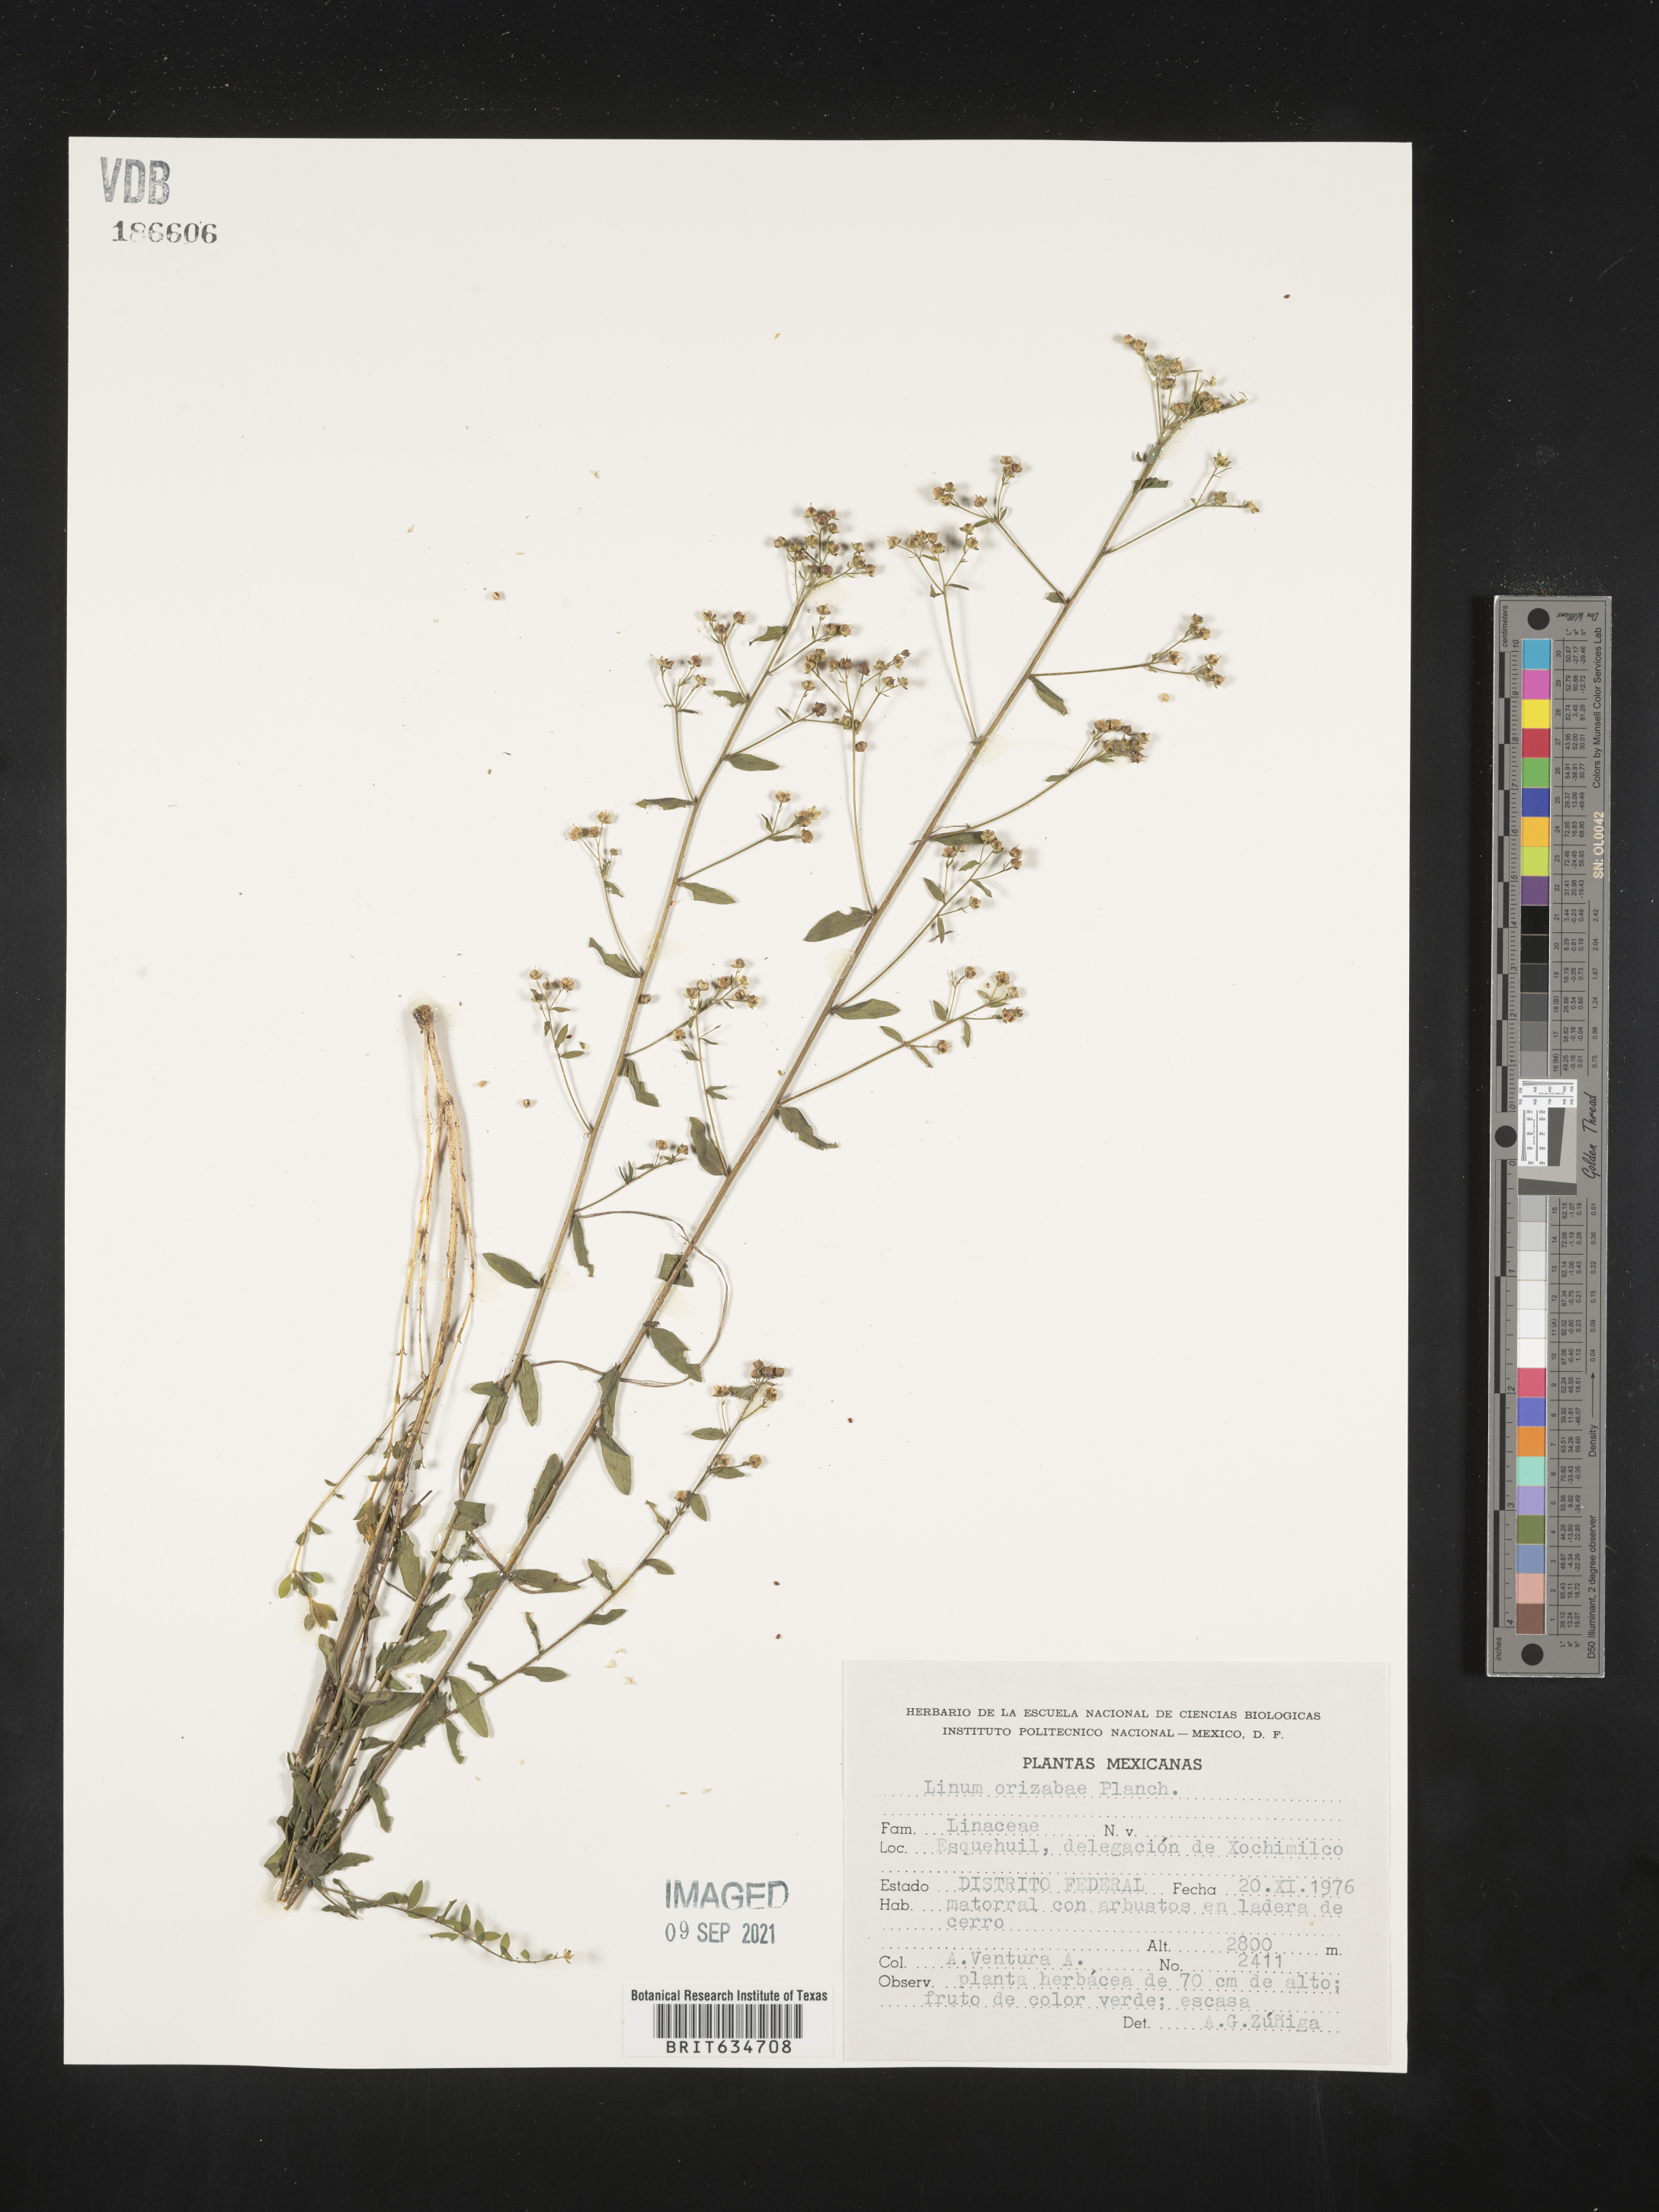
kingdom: Plantae
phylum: Tracheophyta
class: Magnoliopsida
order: Malpighiales
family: Linaceae
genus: Linum
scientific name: Linum
